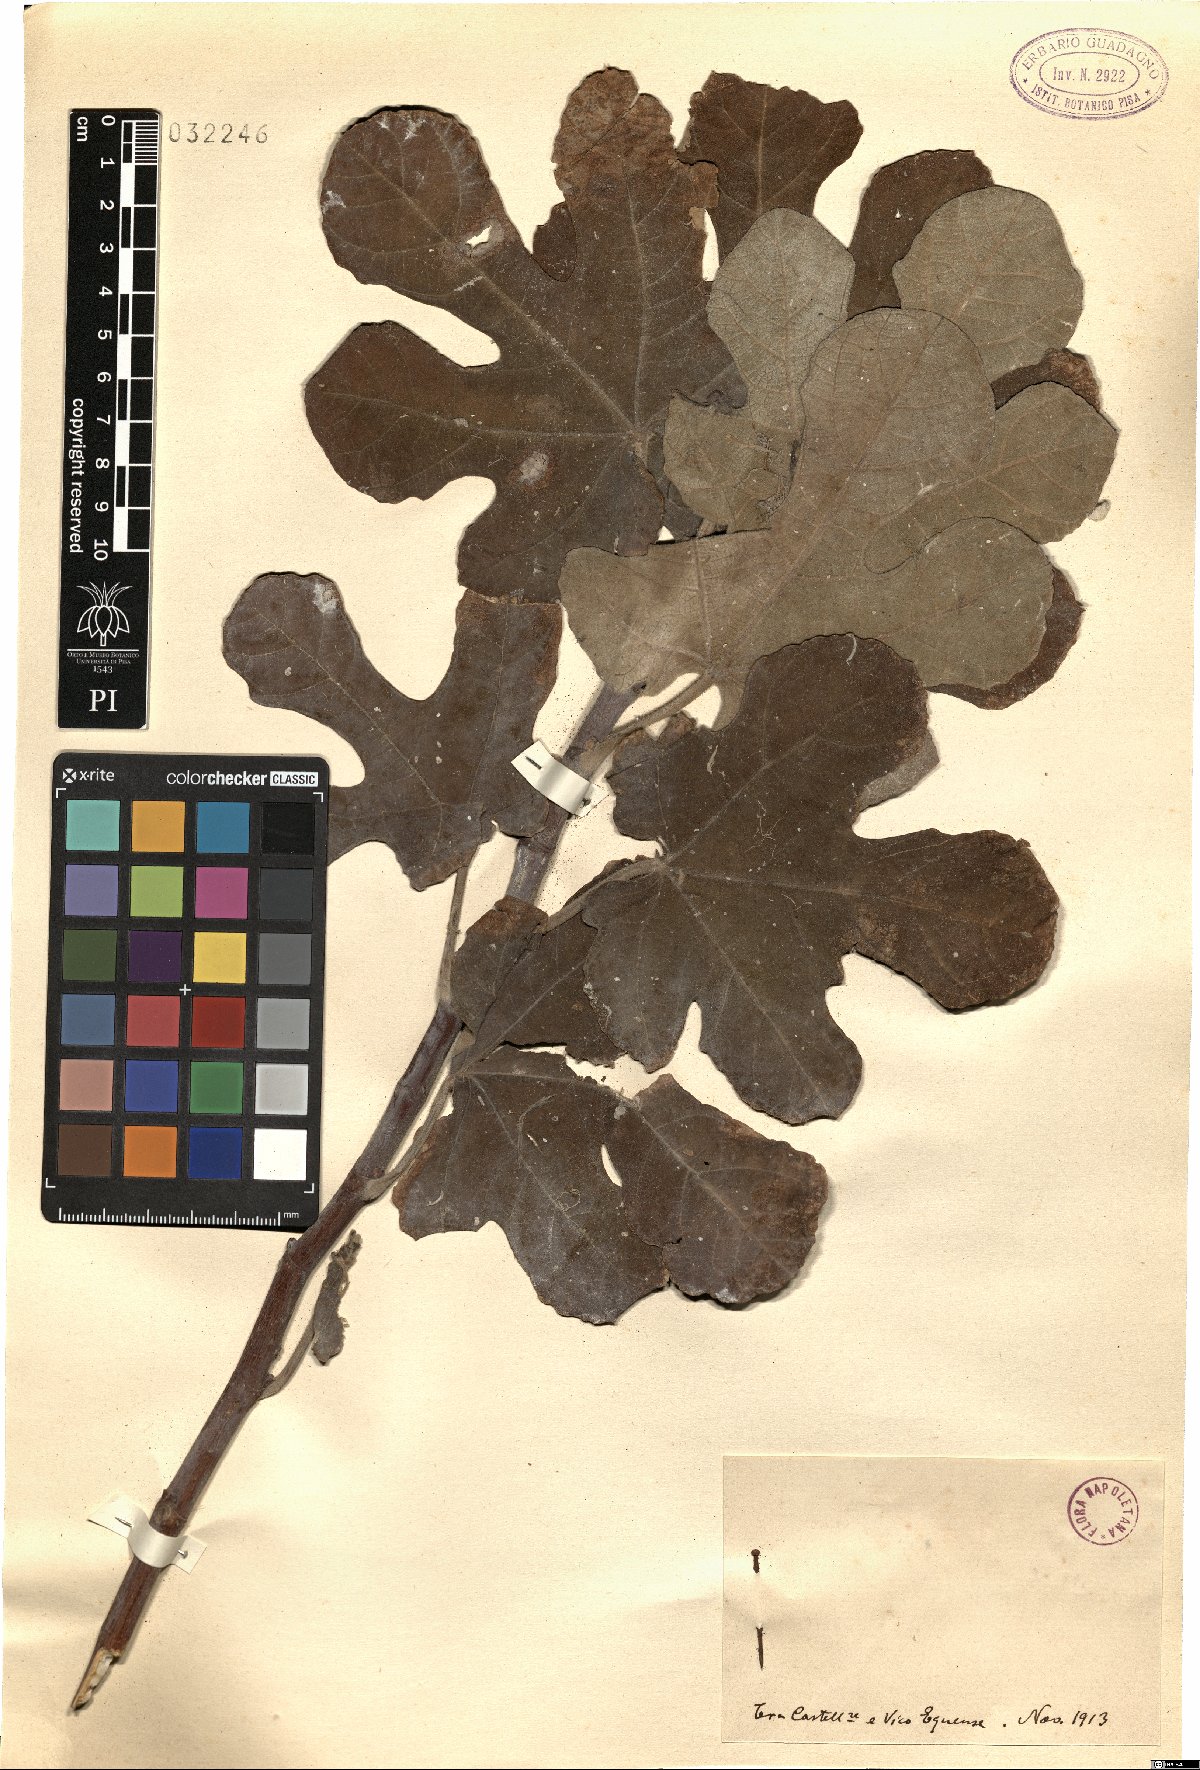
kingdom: Plantae
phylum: Tracheophyta
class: Magnoliopsida
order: Rosales
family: Moraceae
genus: Ficus
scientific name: Ficus carica
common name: Fig
